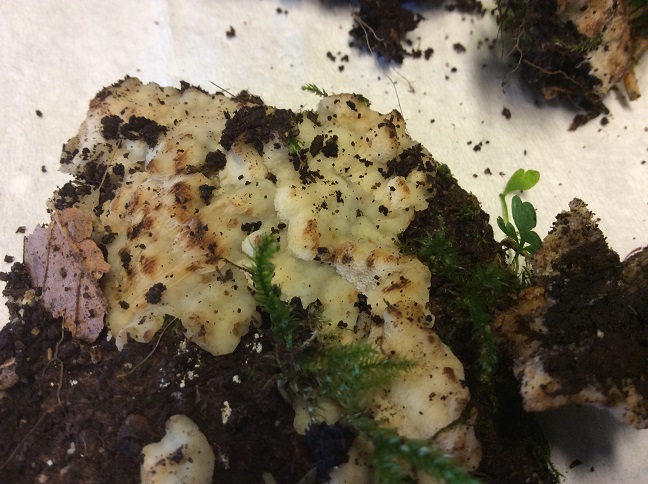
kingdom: Fungi
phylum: Basidiomycota
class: Agaricomycetes
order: Polyporales
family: Meripilaceae
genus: Rigidoporus
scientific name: Rigidoporus sanguinolentus
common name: blod-skorpeporesvamp
